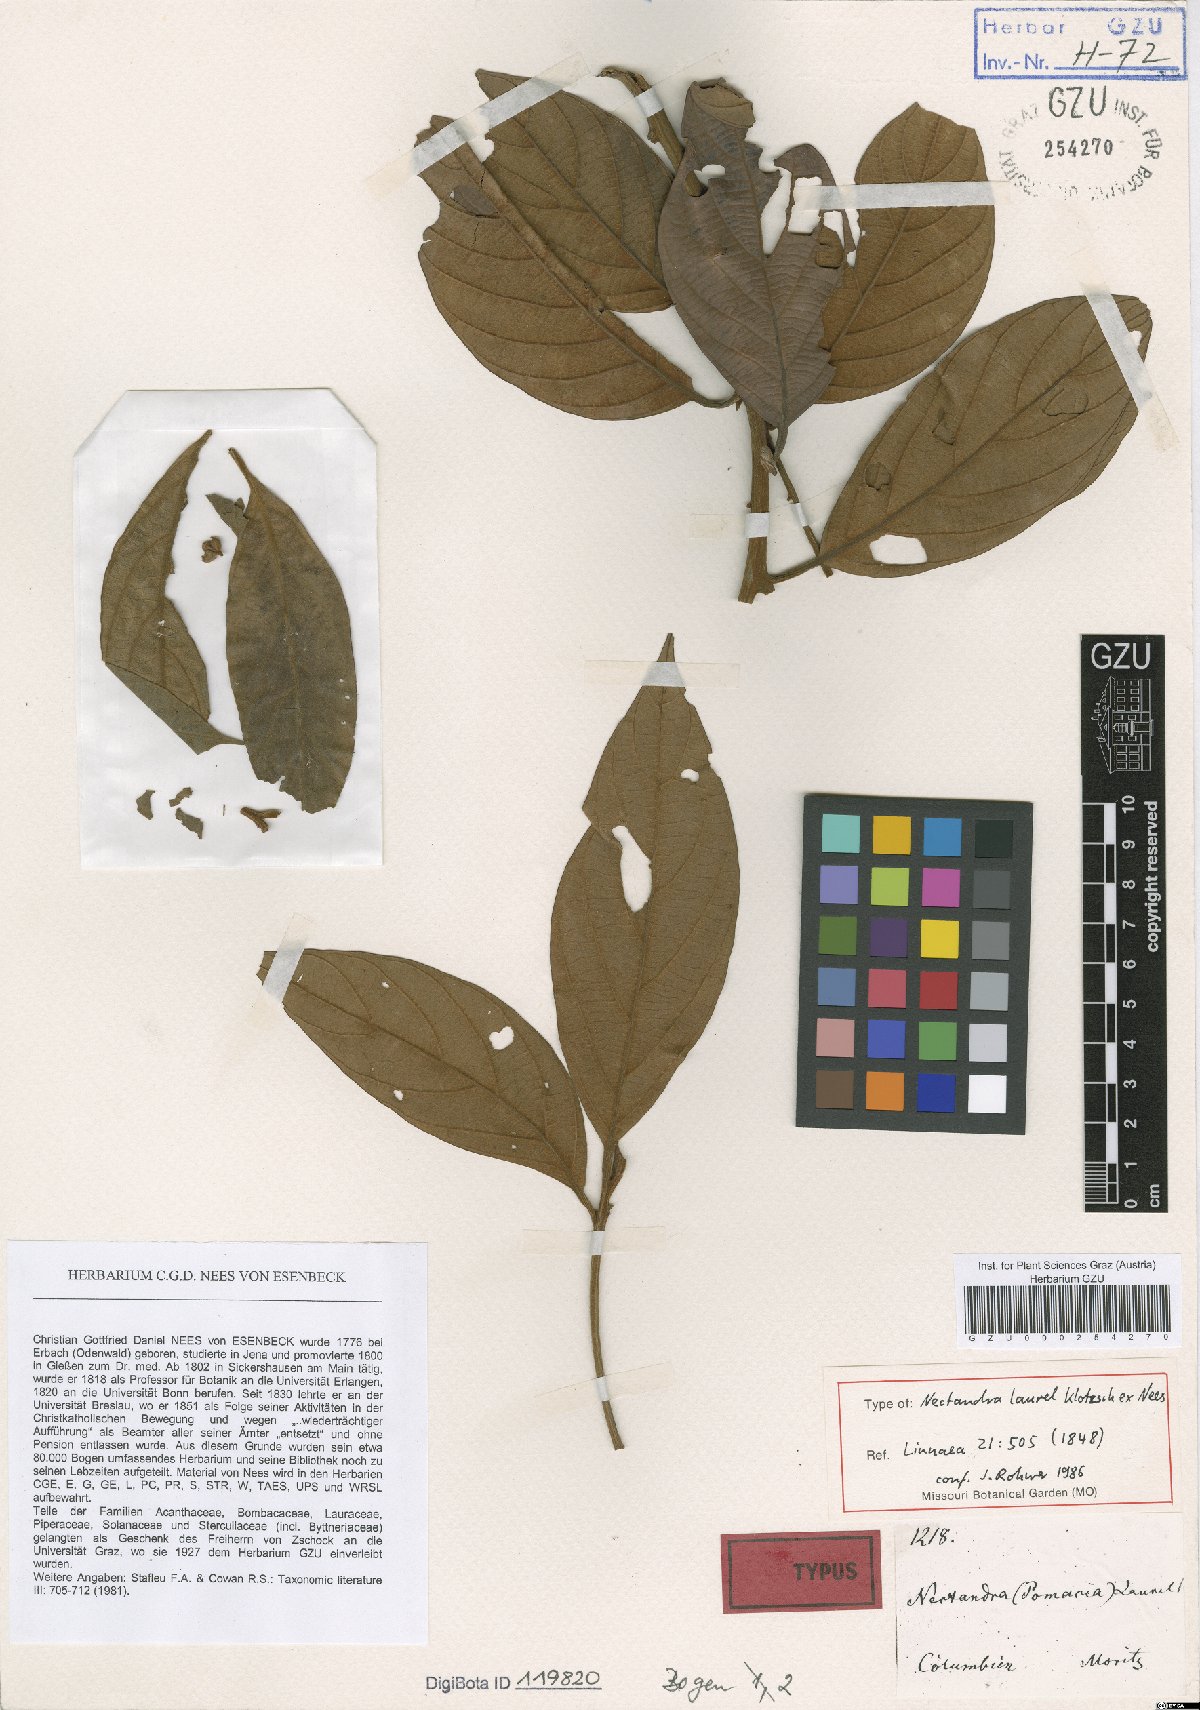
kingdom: Plantae
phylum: Tracheophyta
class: Magnoliopsida
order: Laurales
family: Lauraceae
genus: Nectandra
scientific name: Nectandra laurel
